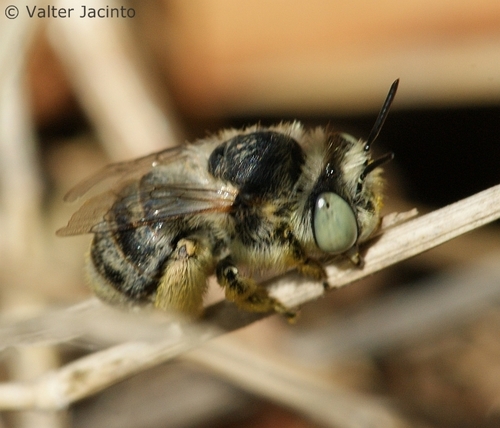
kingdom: Animalia
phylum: Arthropoda
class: Insecta
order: Hymenoptera
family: Apidae
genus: Anthophora
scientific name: Anthophora bimaculata
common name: Green-eyed flower bee
